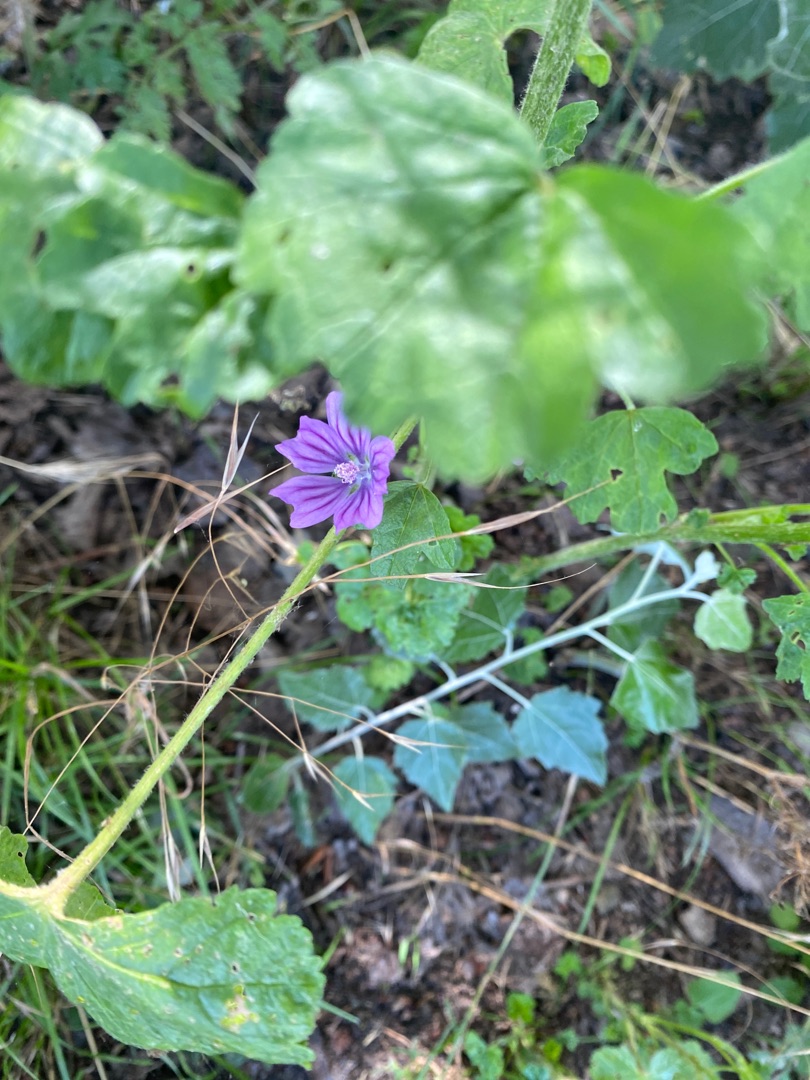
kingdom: Plantae
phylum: Tracheophyta
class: Magnoliopsida
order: Malvales
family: Malvaceae
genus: Malva
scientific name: Malva sylvestris
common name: Almindelig katost
